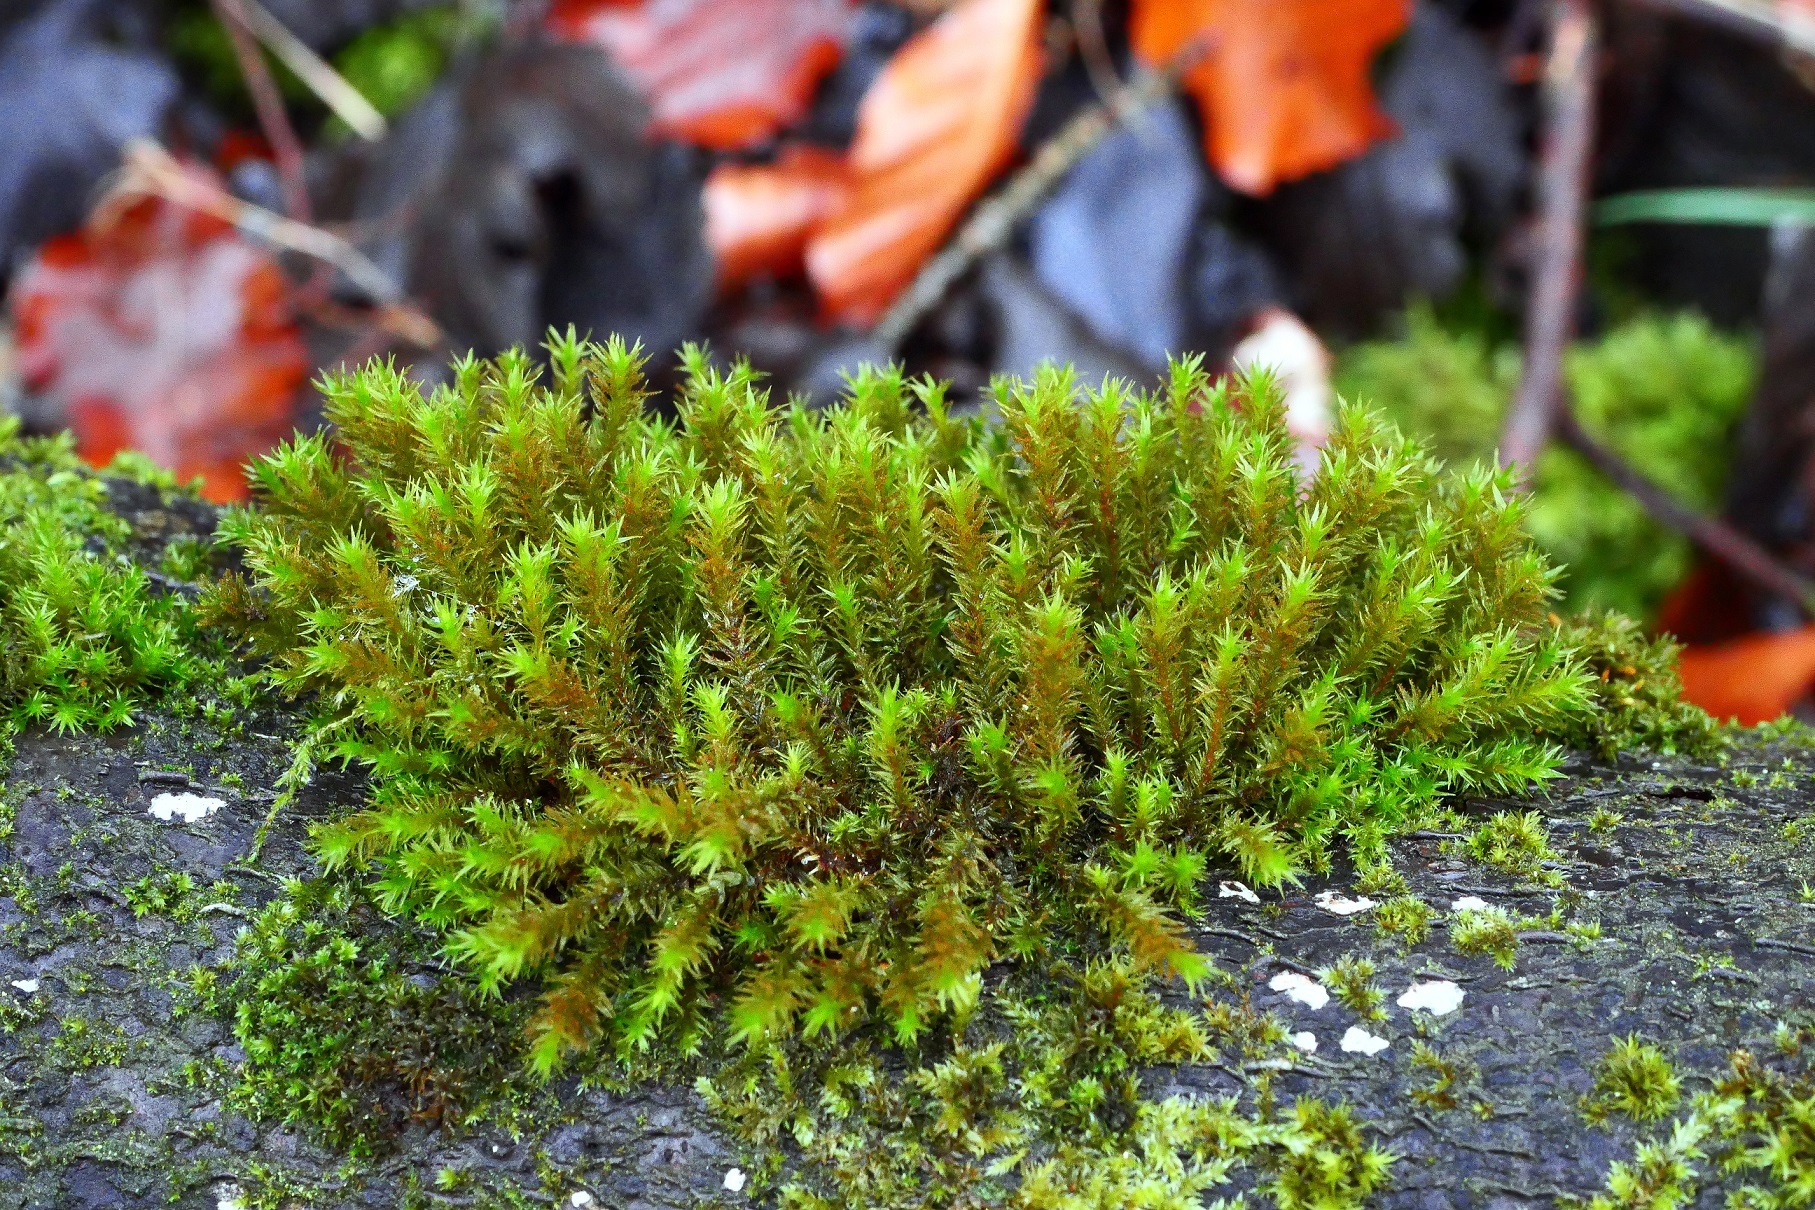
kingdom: Plantae
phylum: Bryophyta
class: Bryopsida
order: Orthotrichales
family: Orthotrichaceae
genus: Pulvigera
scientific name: Pulvigera lyellii
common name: Stor furehætte
